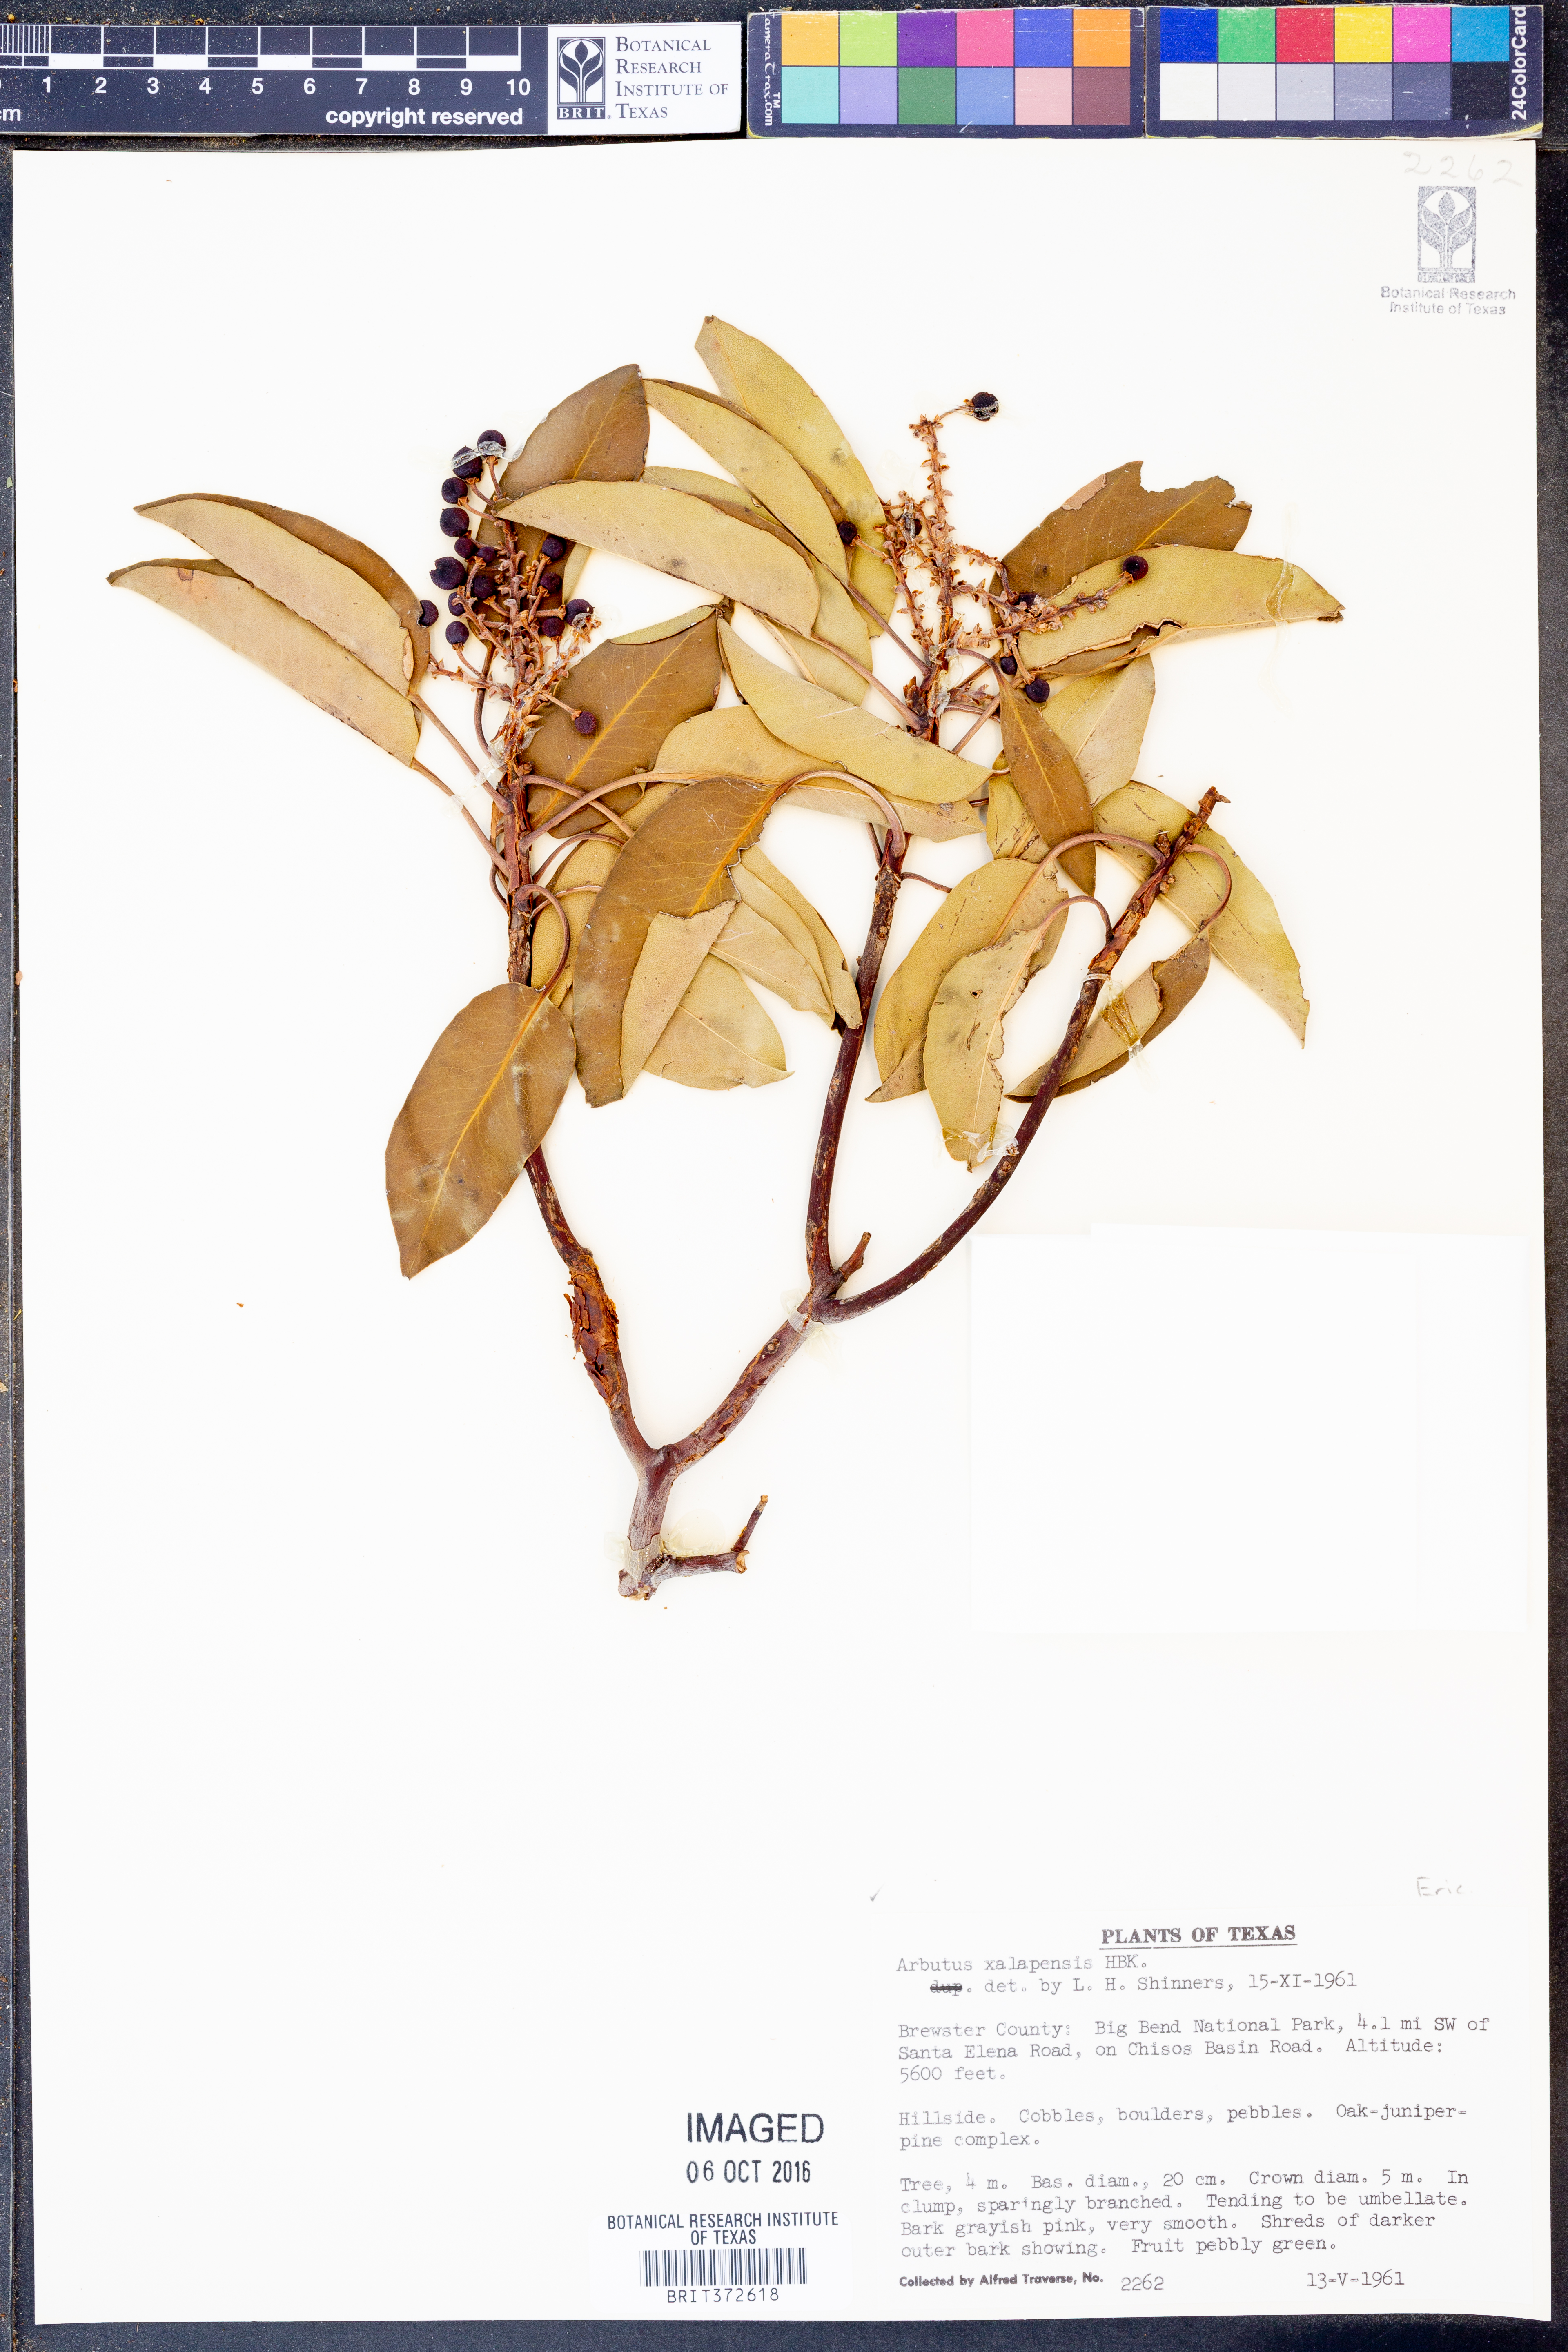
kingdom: Plantae
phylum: Tracheophyta
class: Magnoliopsida
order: Ericales
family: Ericaceae
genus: Arbutus
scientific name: Arbutus xalapensis
